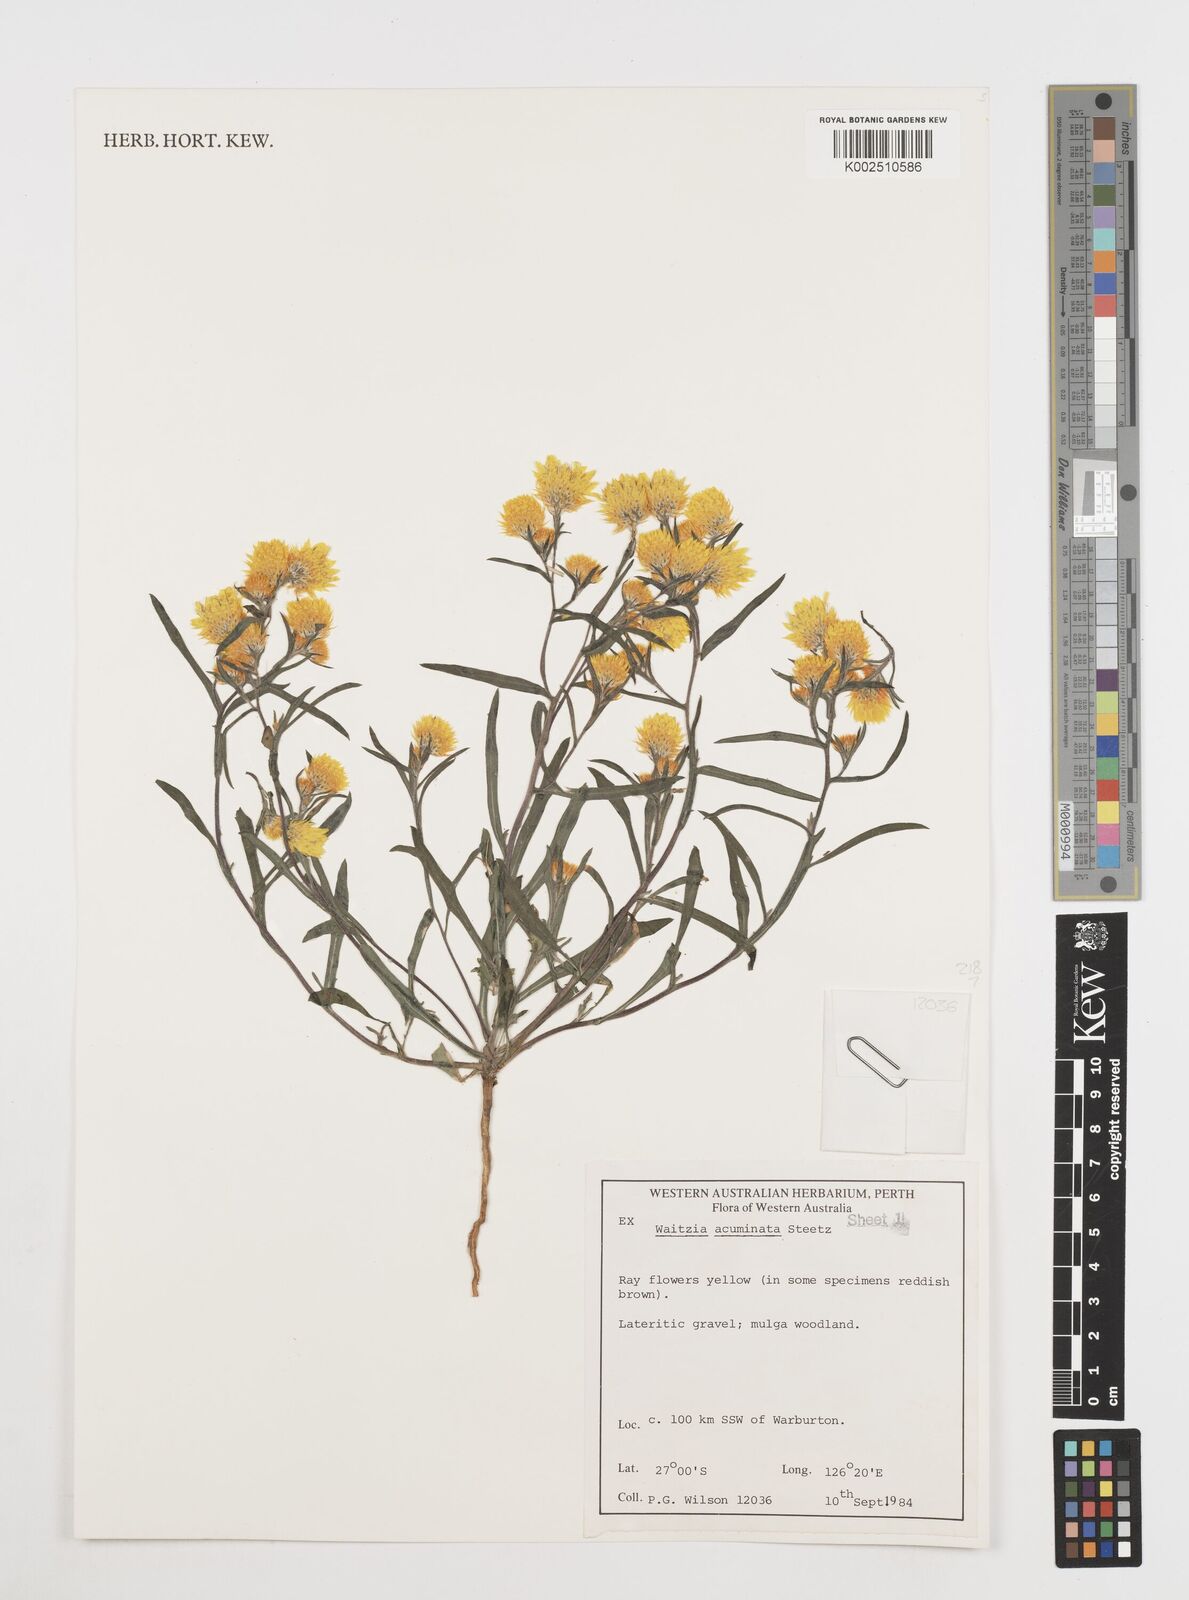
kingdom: Plantae
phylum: Tracheophyta
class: Magnoliopsida
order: Asterales
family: Asteraceae
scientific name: Asteraceae
